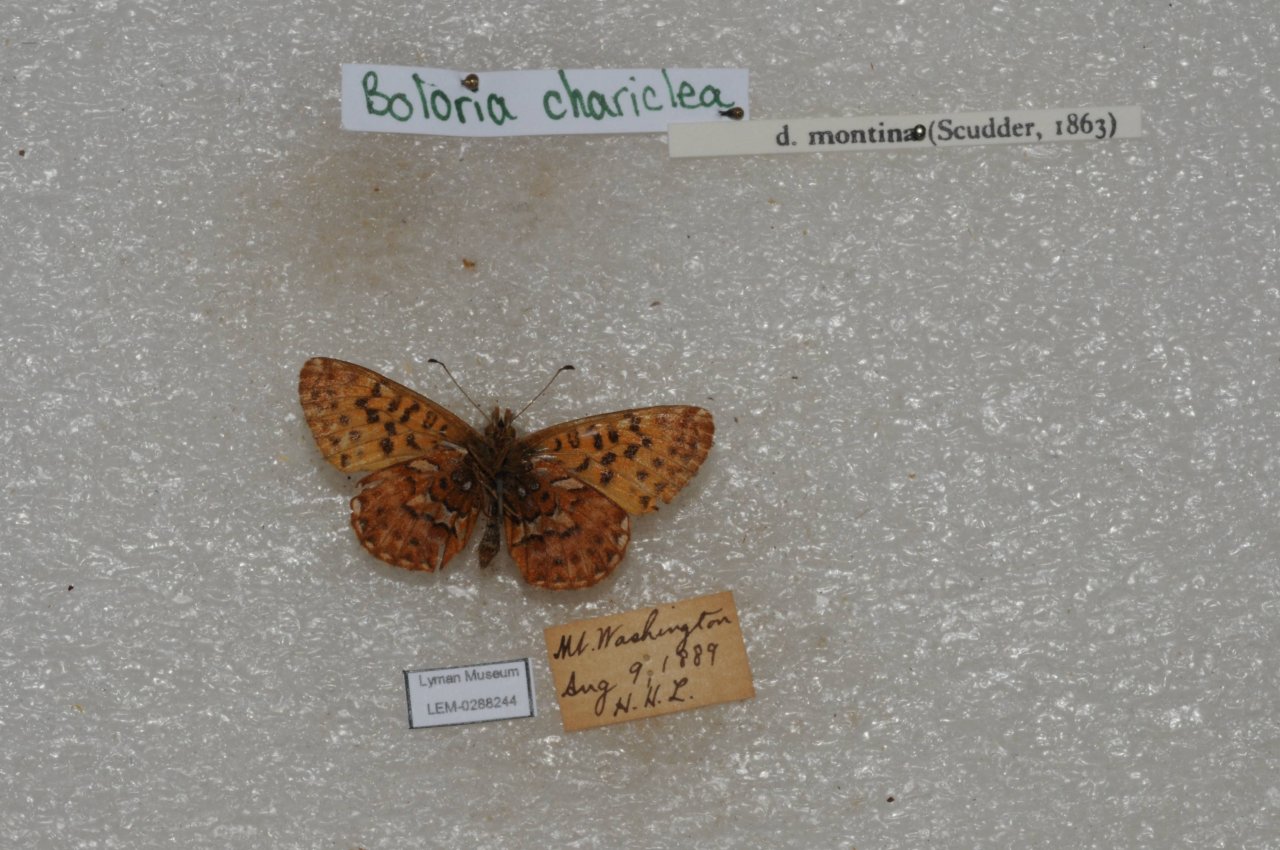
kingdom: Animalia
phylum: Arthropoda
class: Insecta
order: Lepidoptera
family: Nymphalidae
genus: Boloria
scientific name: Boloria chariclea
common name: Arctic Fritillary
